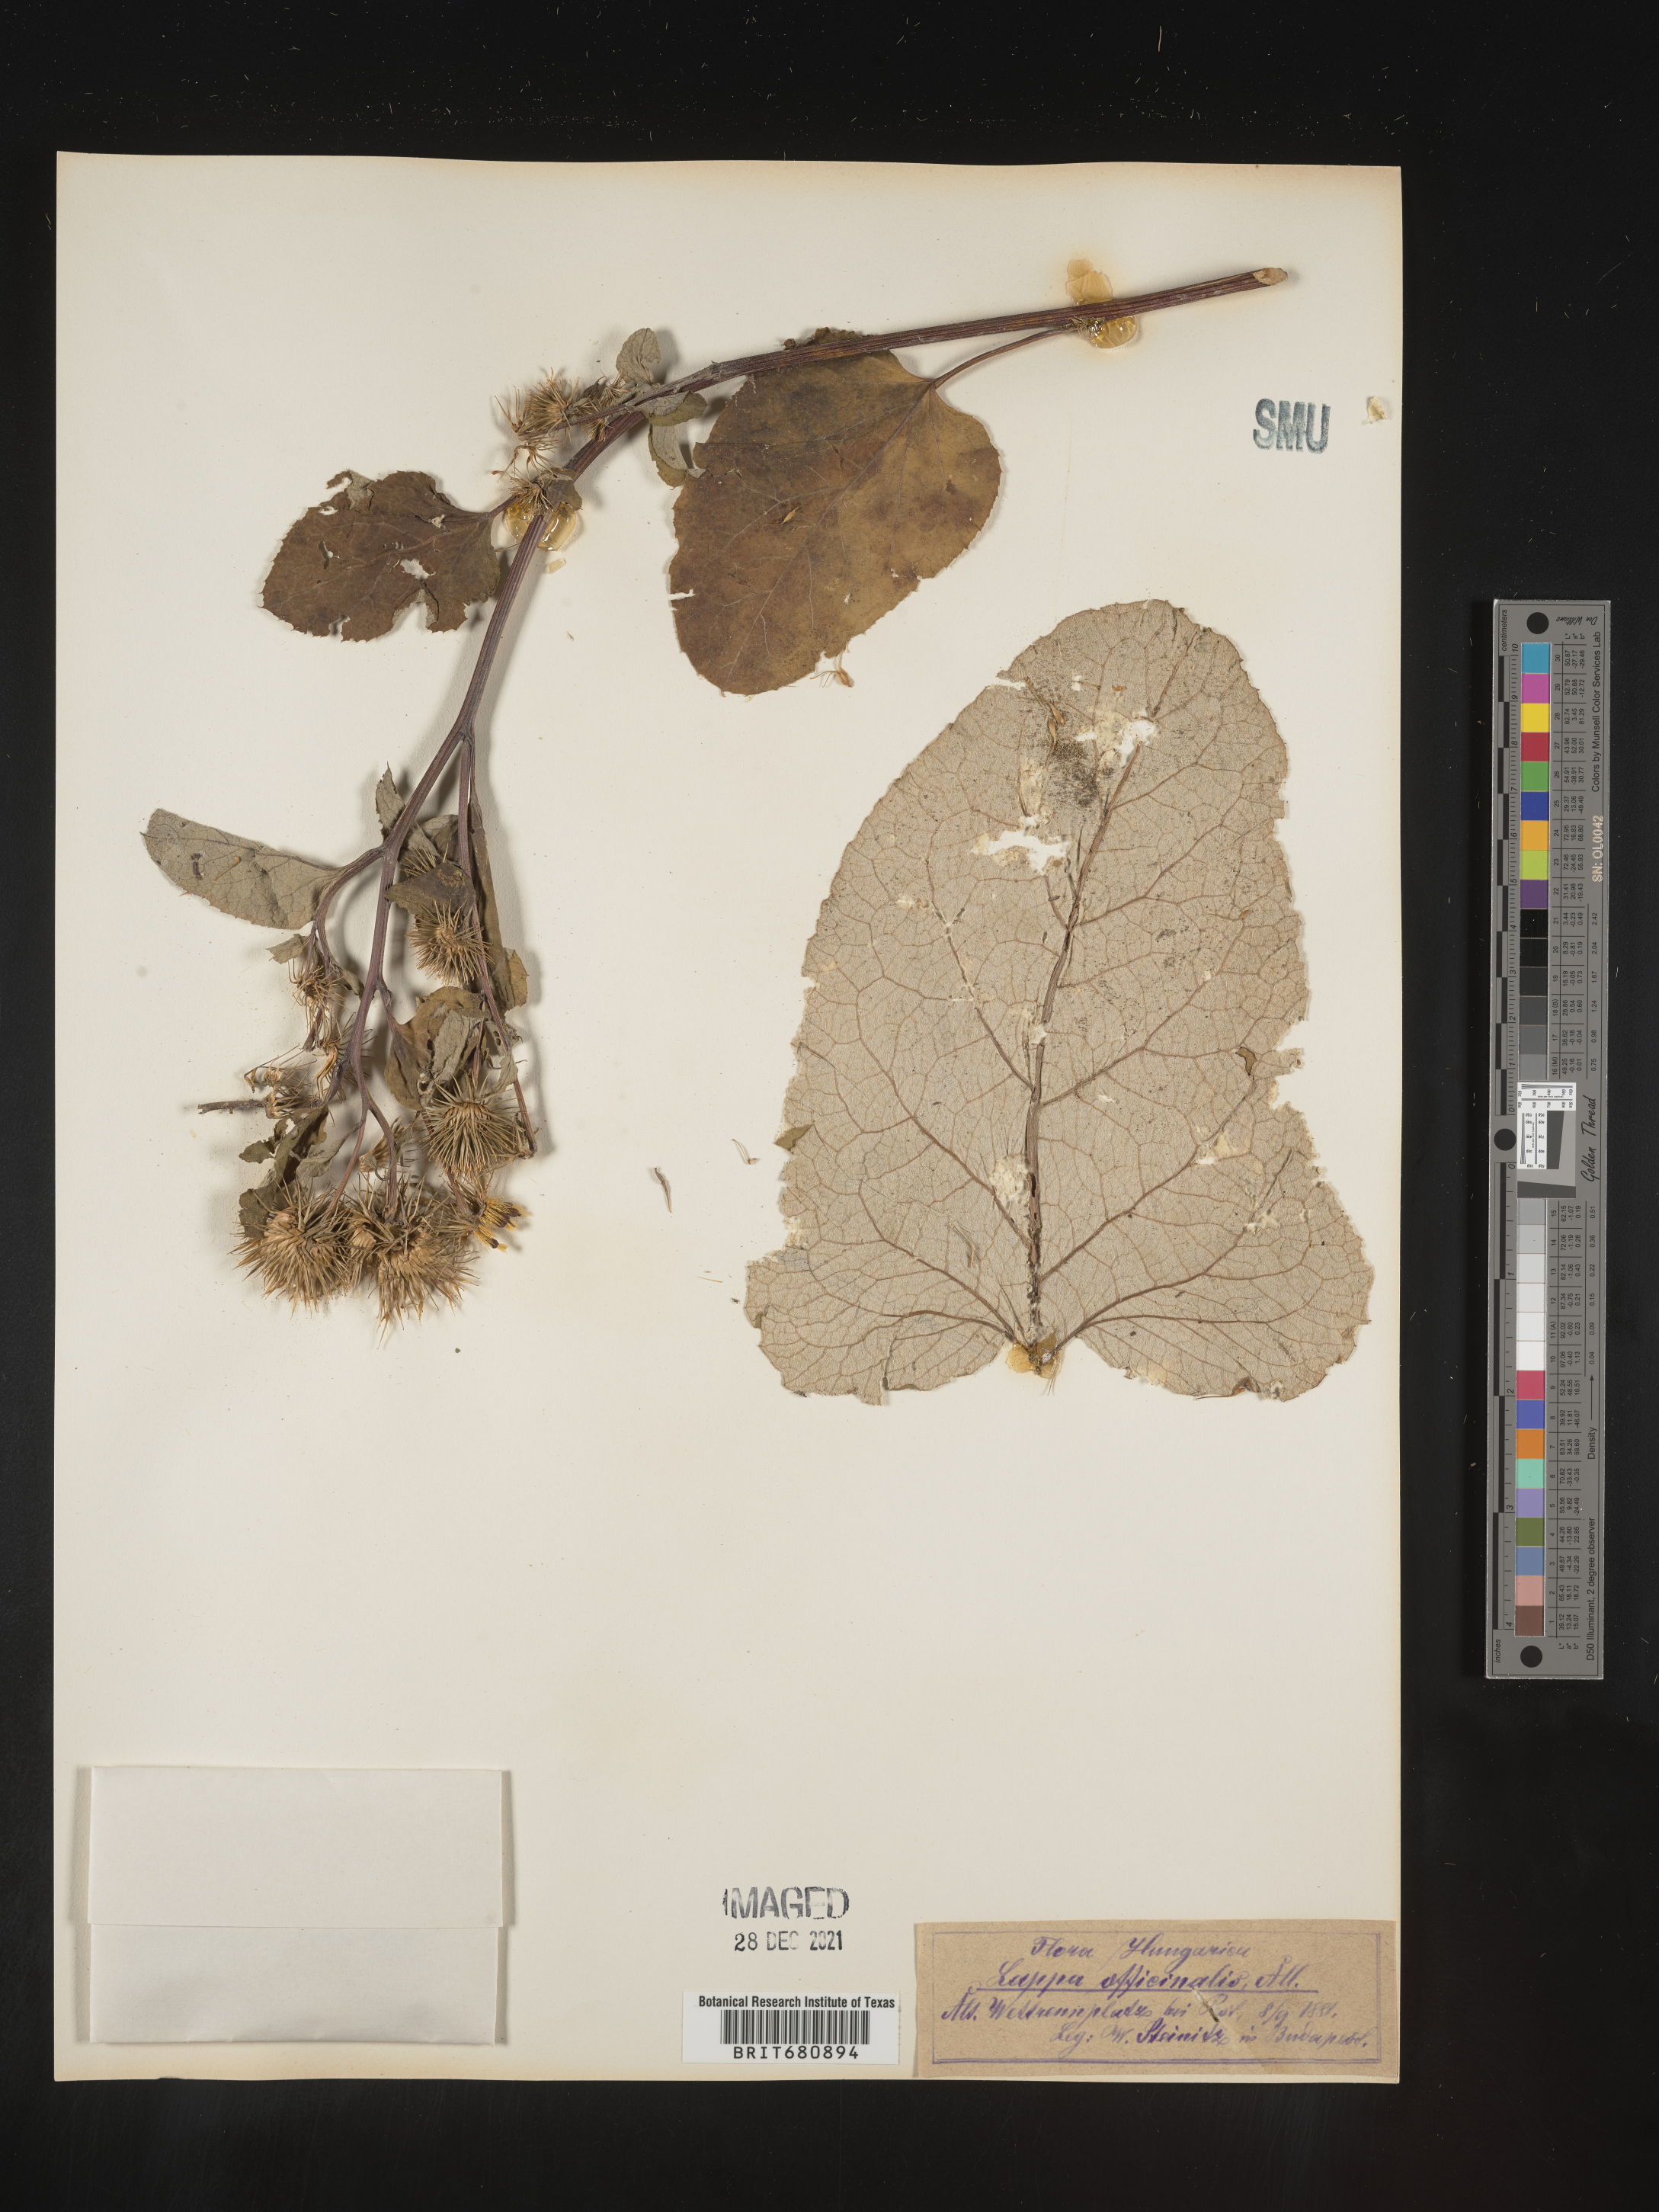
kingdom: Plantae
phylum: Tracheophyta
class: Magnoliopsida
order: Asterales
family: Asteraceae
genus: Arctium
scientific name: Arctium
